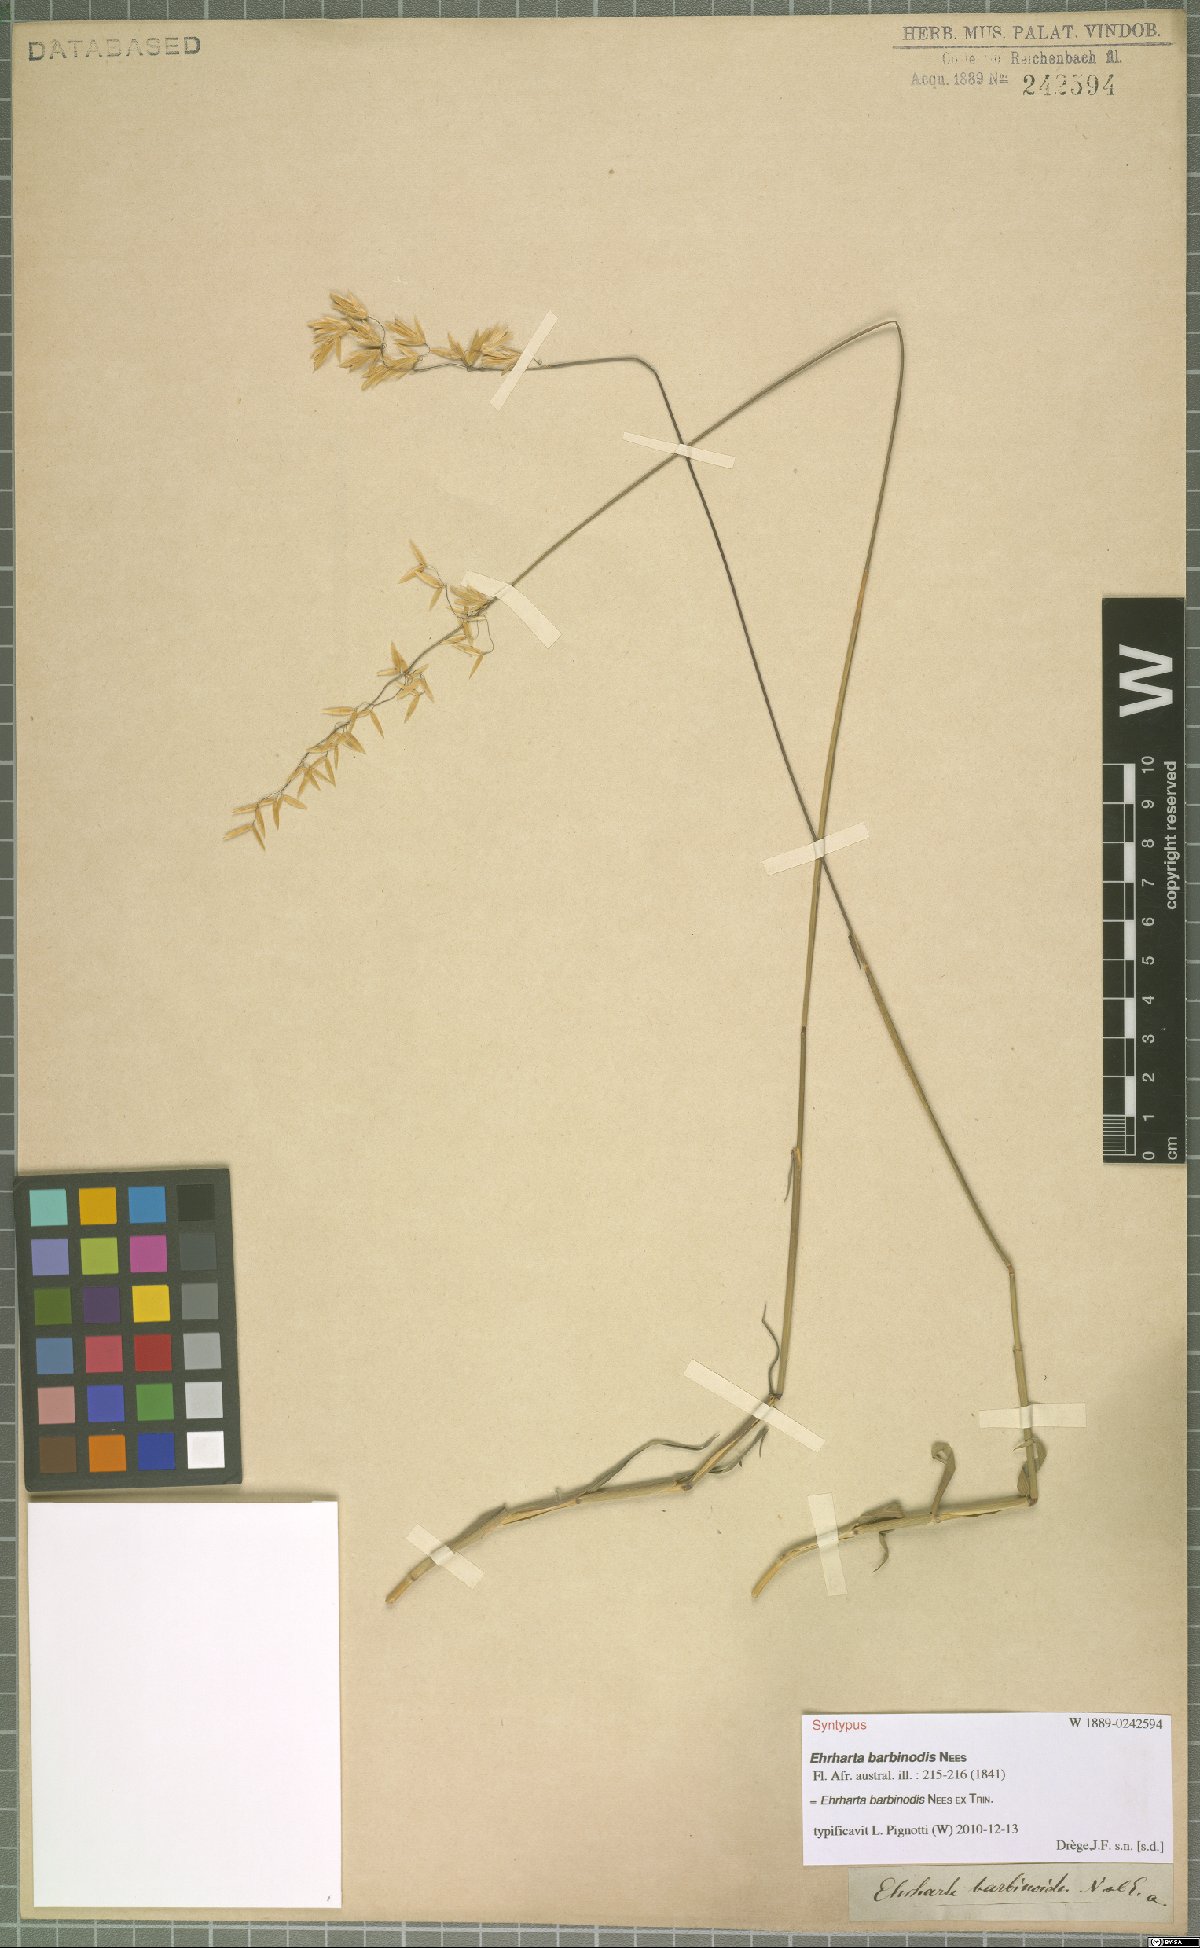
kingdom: Plantae
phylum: Tracheophyta
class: Liliopsida
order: Poales
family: Poaceae
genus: Ehrharta
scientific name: Ehrharta barbinodis
